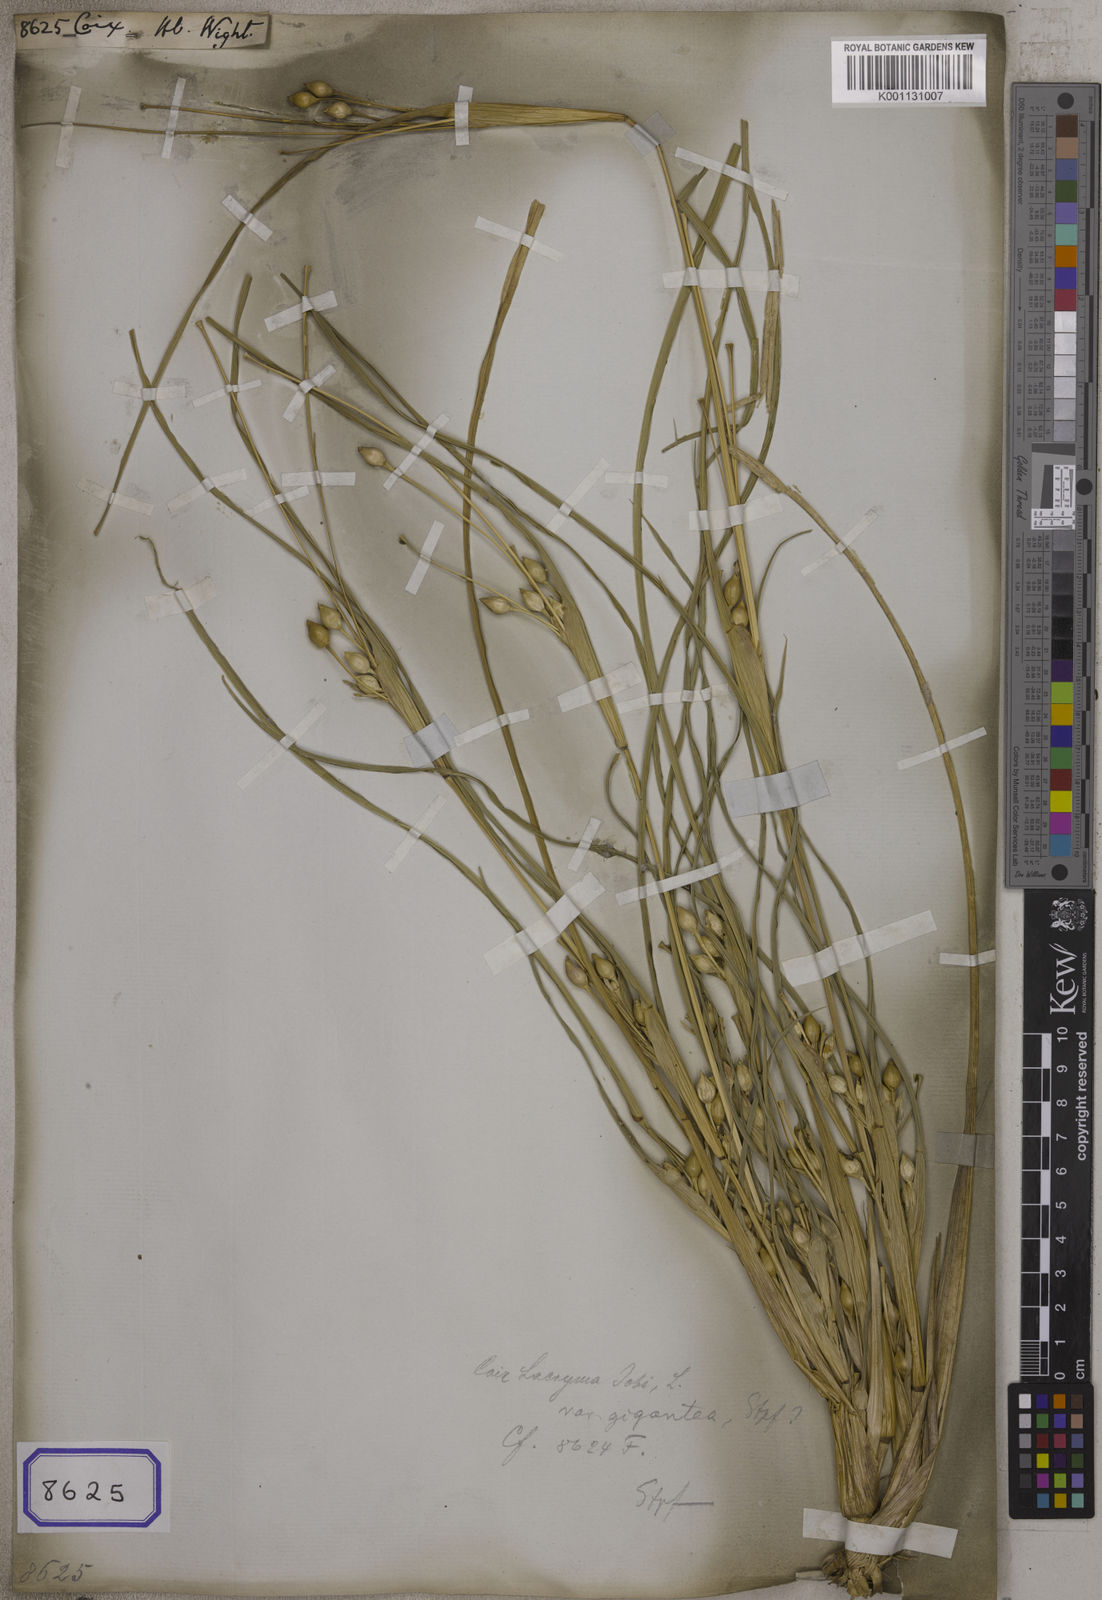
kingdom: Plantae
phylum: Tracheophyta
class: Liliopsida
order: Poales
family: Poaceae
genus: Coix
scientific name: Coix
